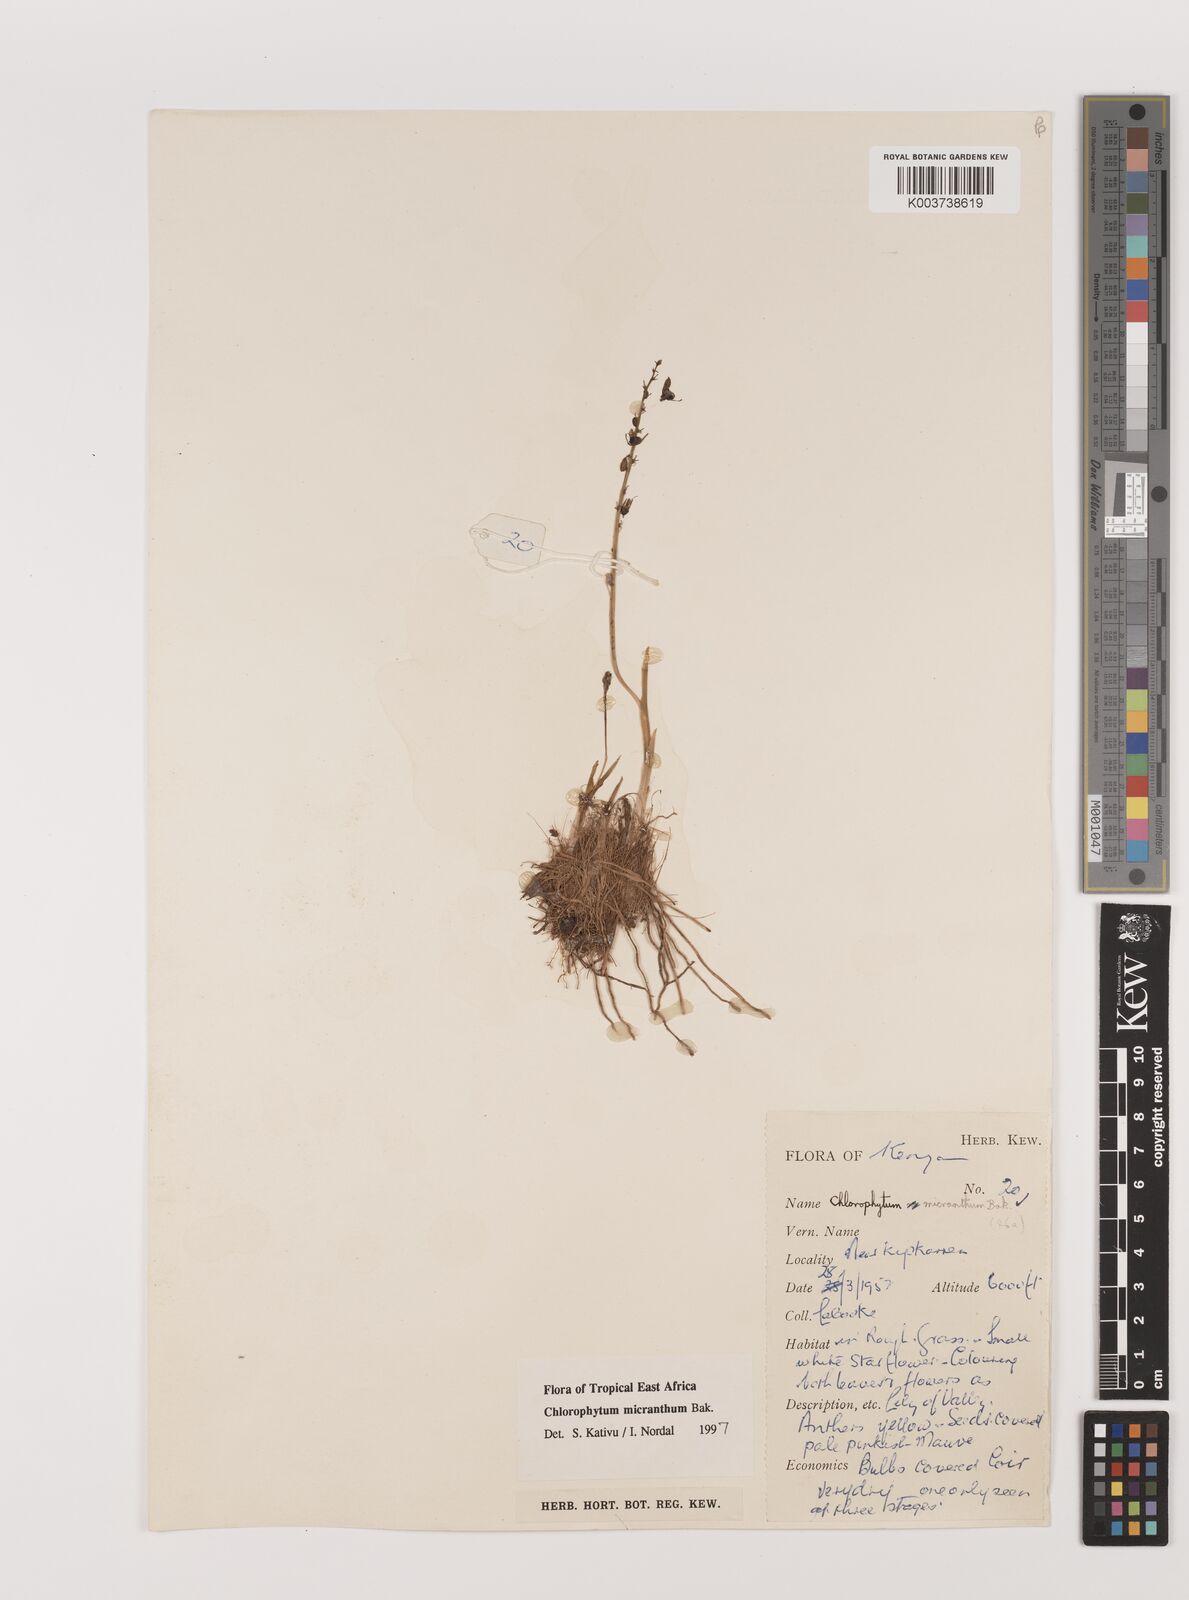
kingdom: Plantae
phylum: Tracheophyta
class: Liliopsida
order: Asparagales
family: Asparagaceae
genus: Chlorophytum
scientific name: Chlorophytum gallabatense
